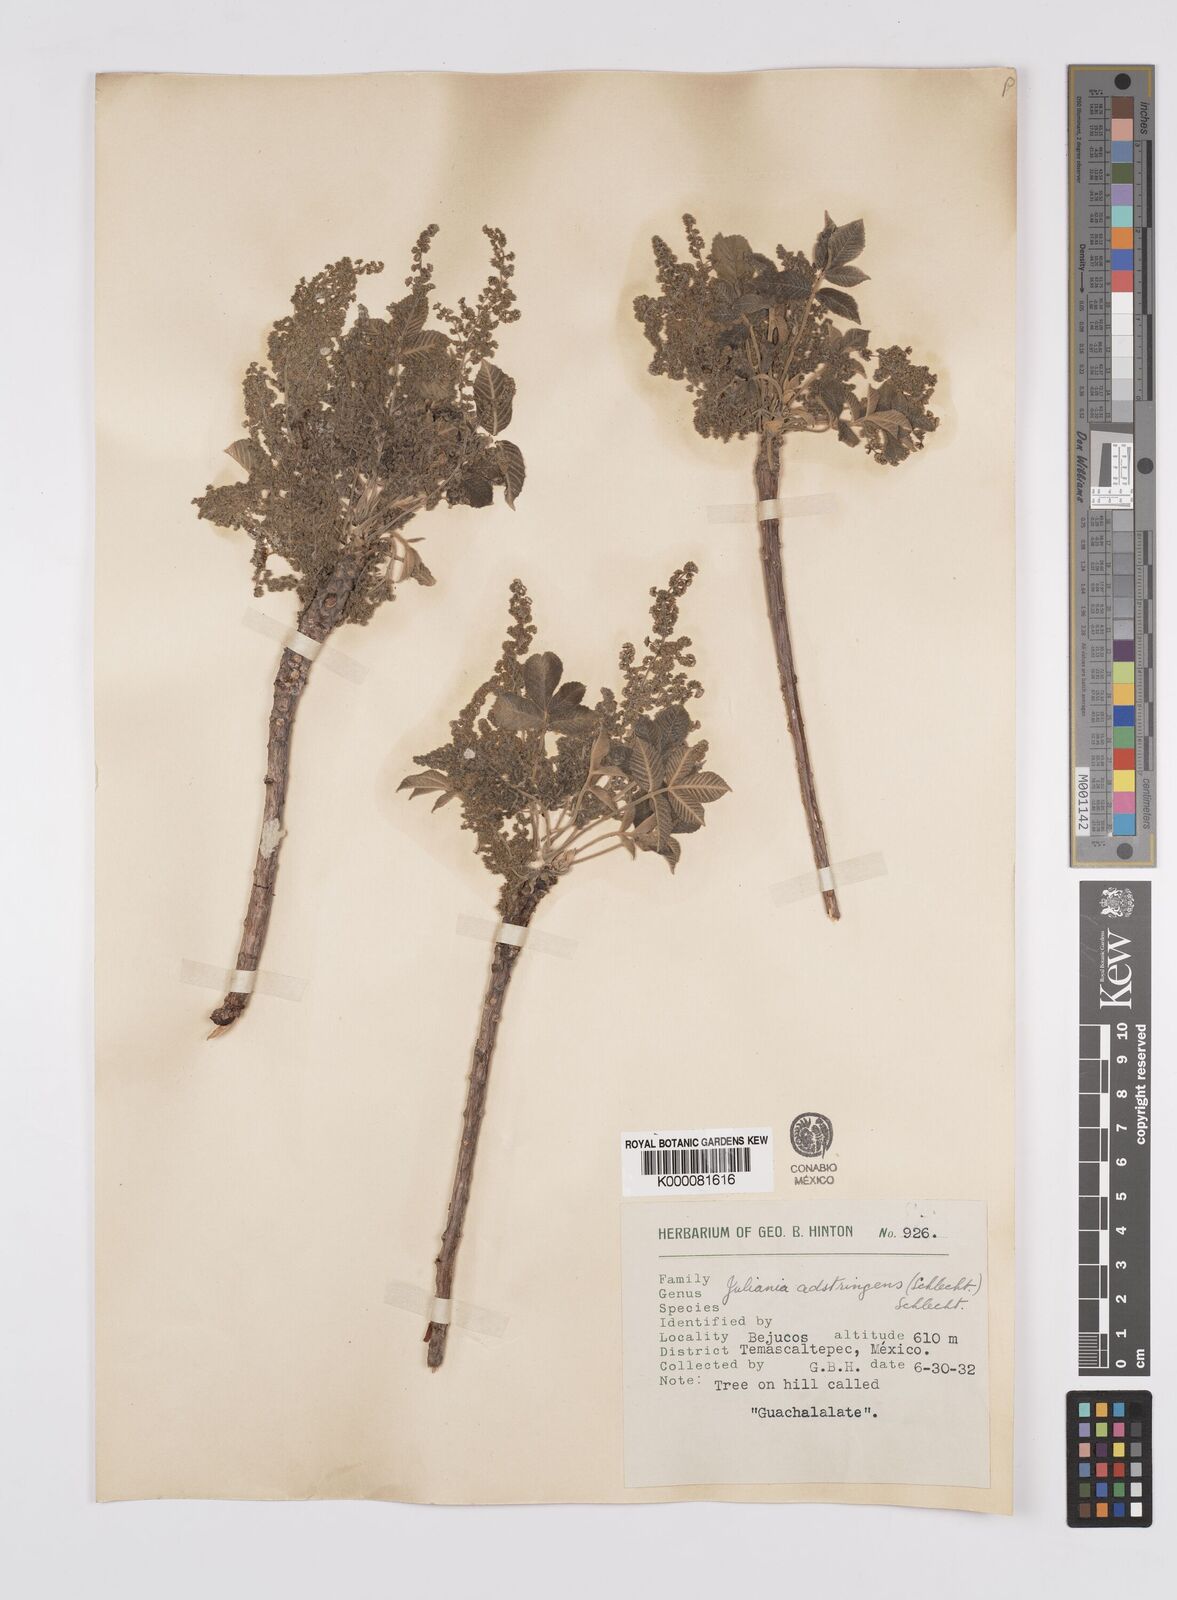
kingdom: Plantae
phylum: Tracheophyta
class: Magnoliopsida
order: Sapindales
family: Anacardiaceae
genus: Amphipterygium
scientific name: Amphipterygium adstringens
